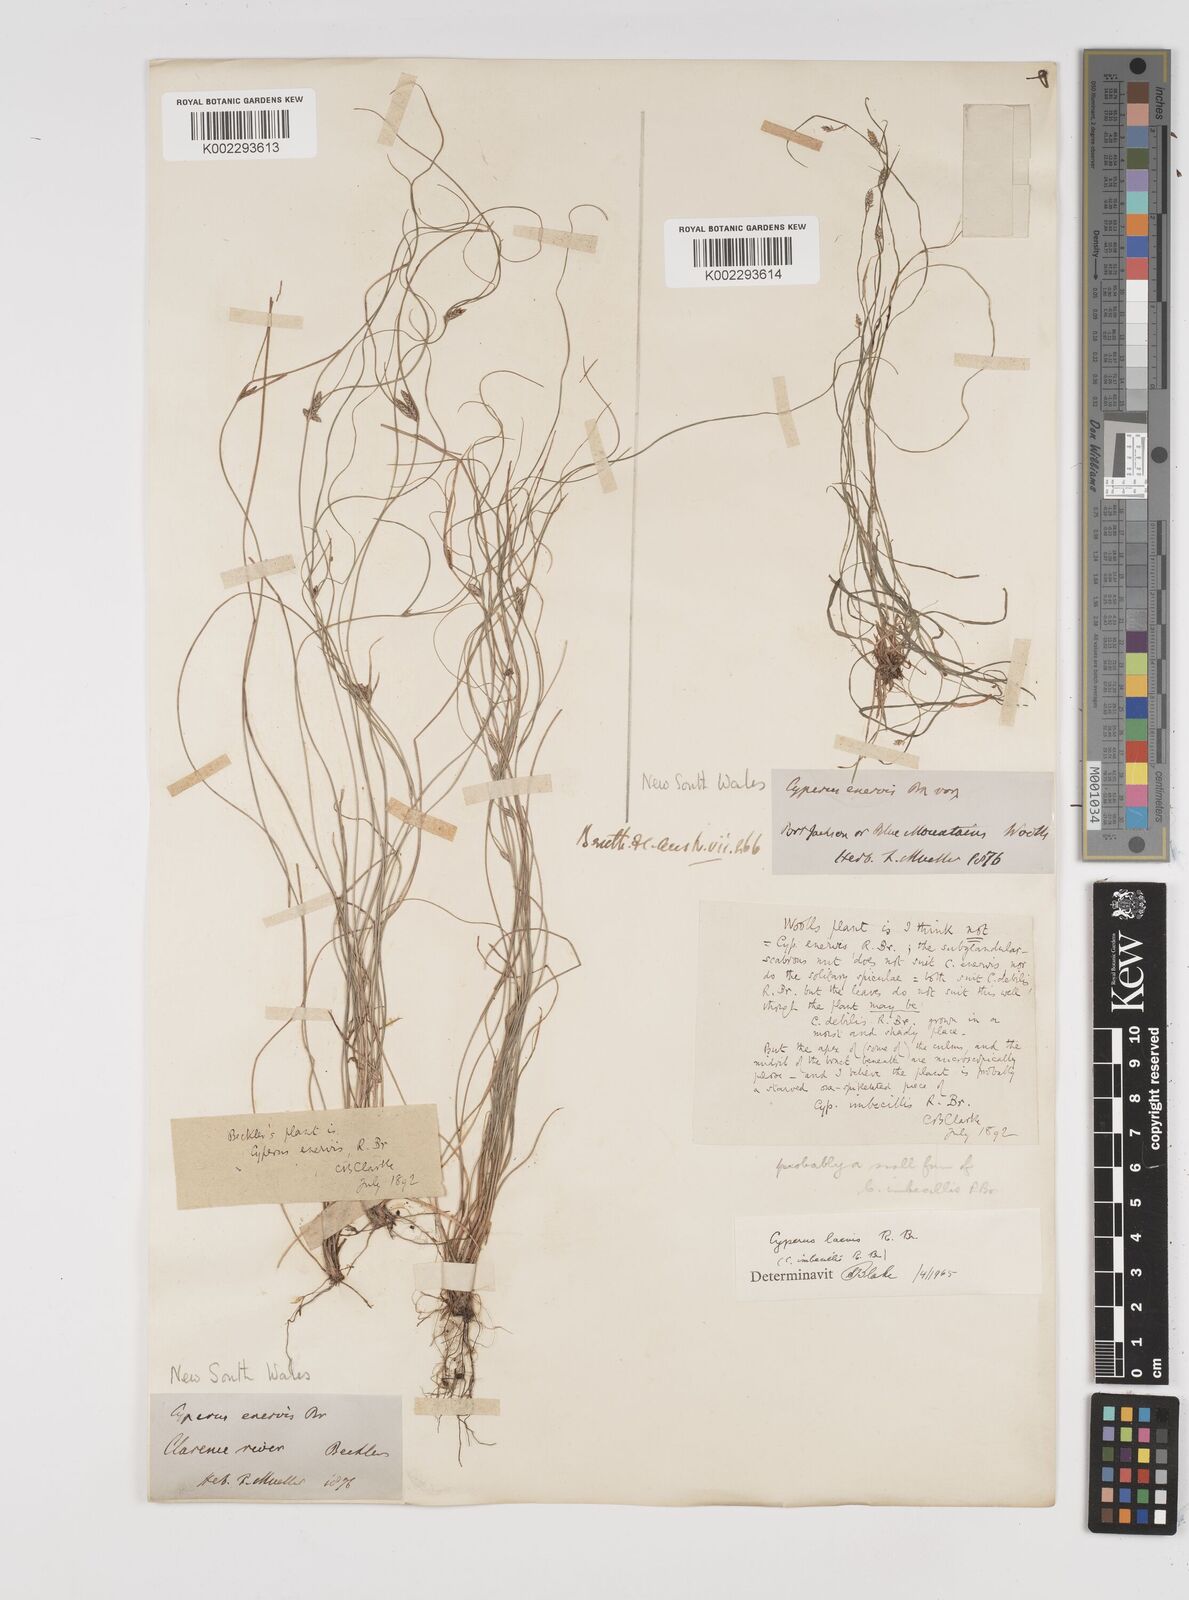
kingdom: Plantae
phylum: Tracheophyta
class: Liliopsida
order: Poales
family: Cyperaceae
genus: Cyperus
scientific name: Cyperus laevis
